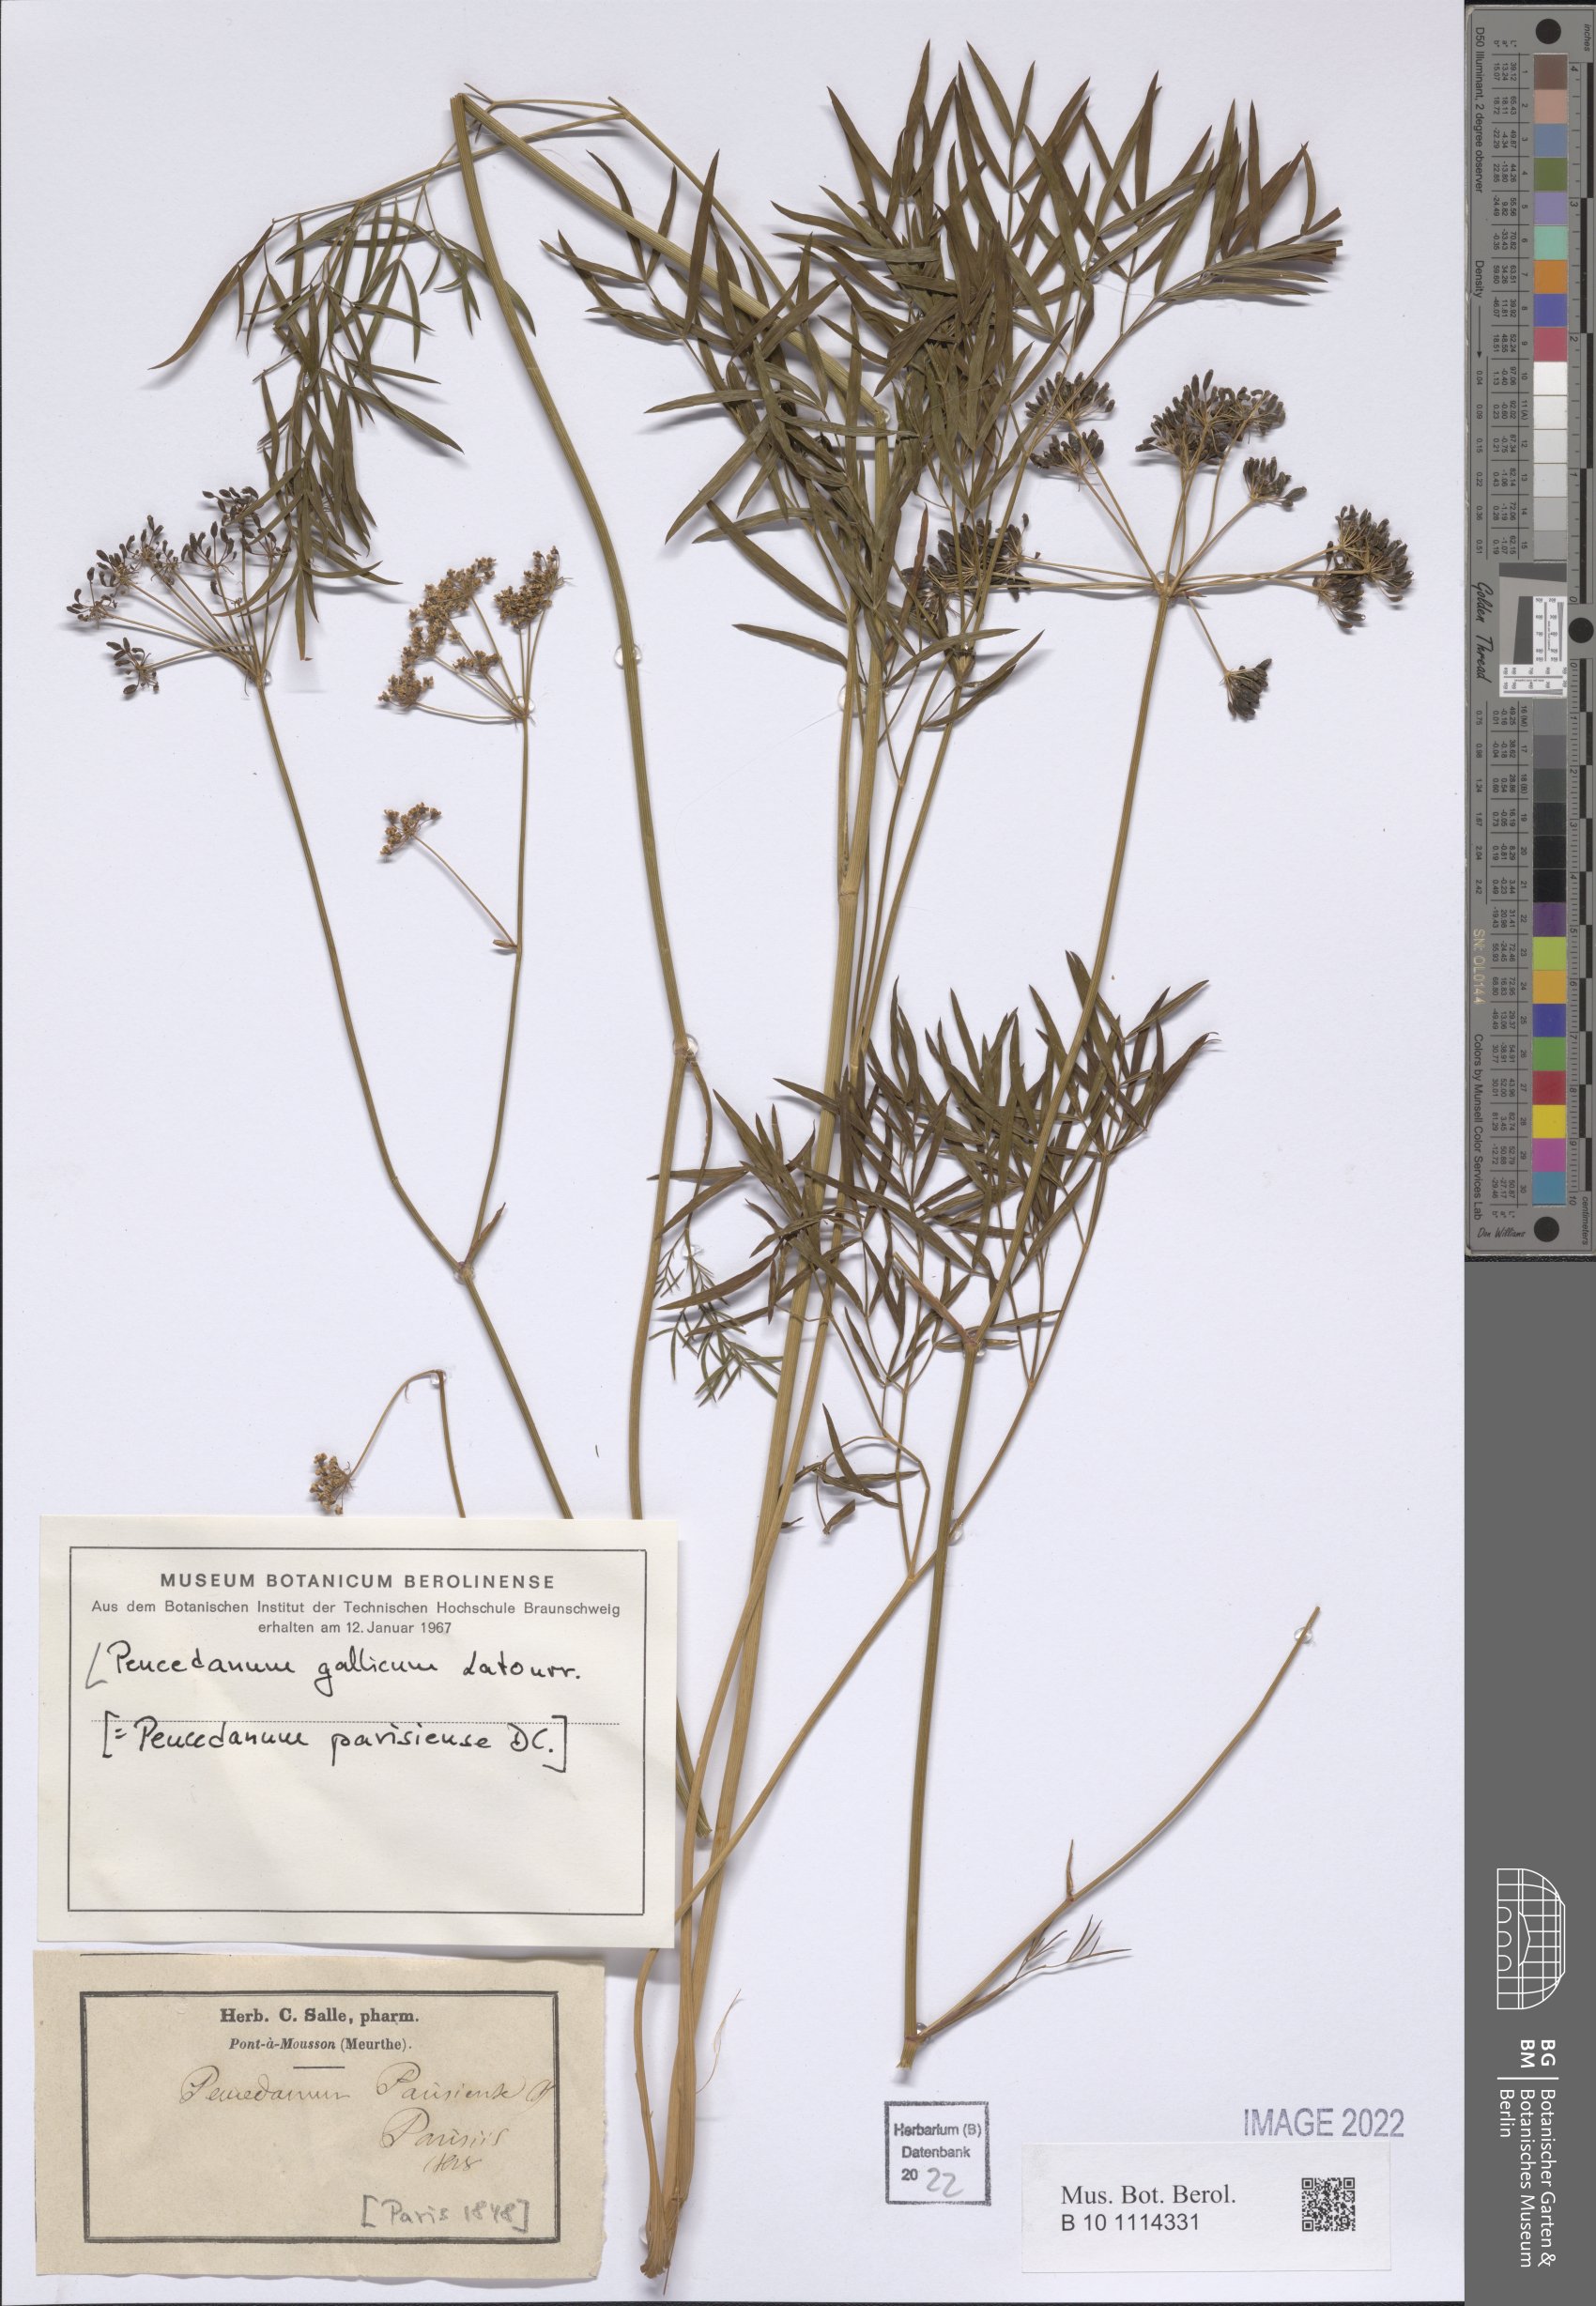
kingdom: Plantae
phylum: Tracheophyta
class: Magnoliopsida
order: Apiales
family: Apiaceae
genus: Peucedanum
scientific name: Peucedanum gallicum
